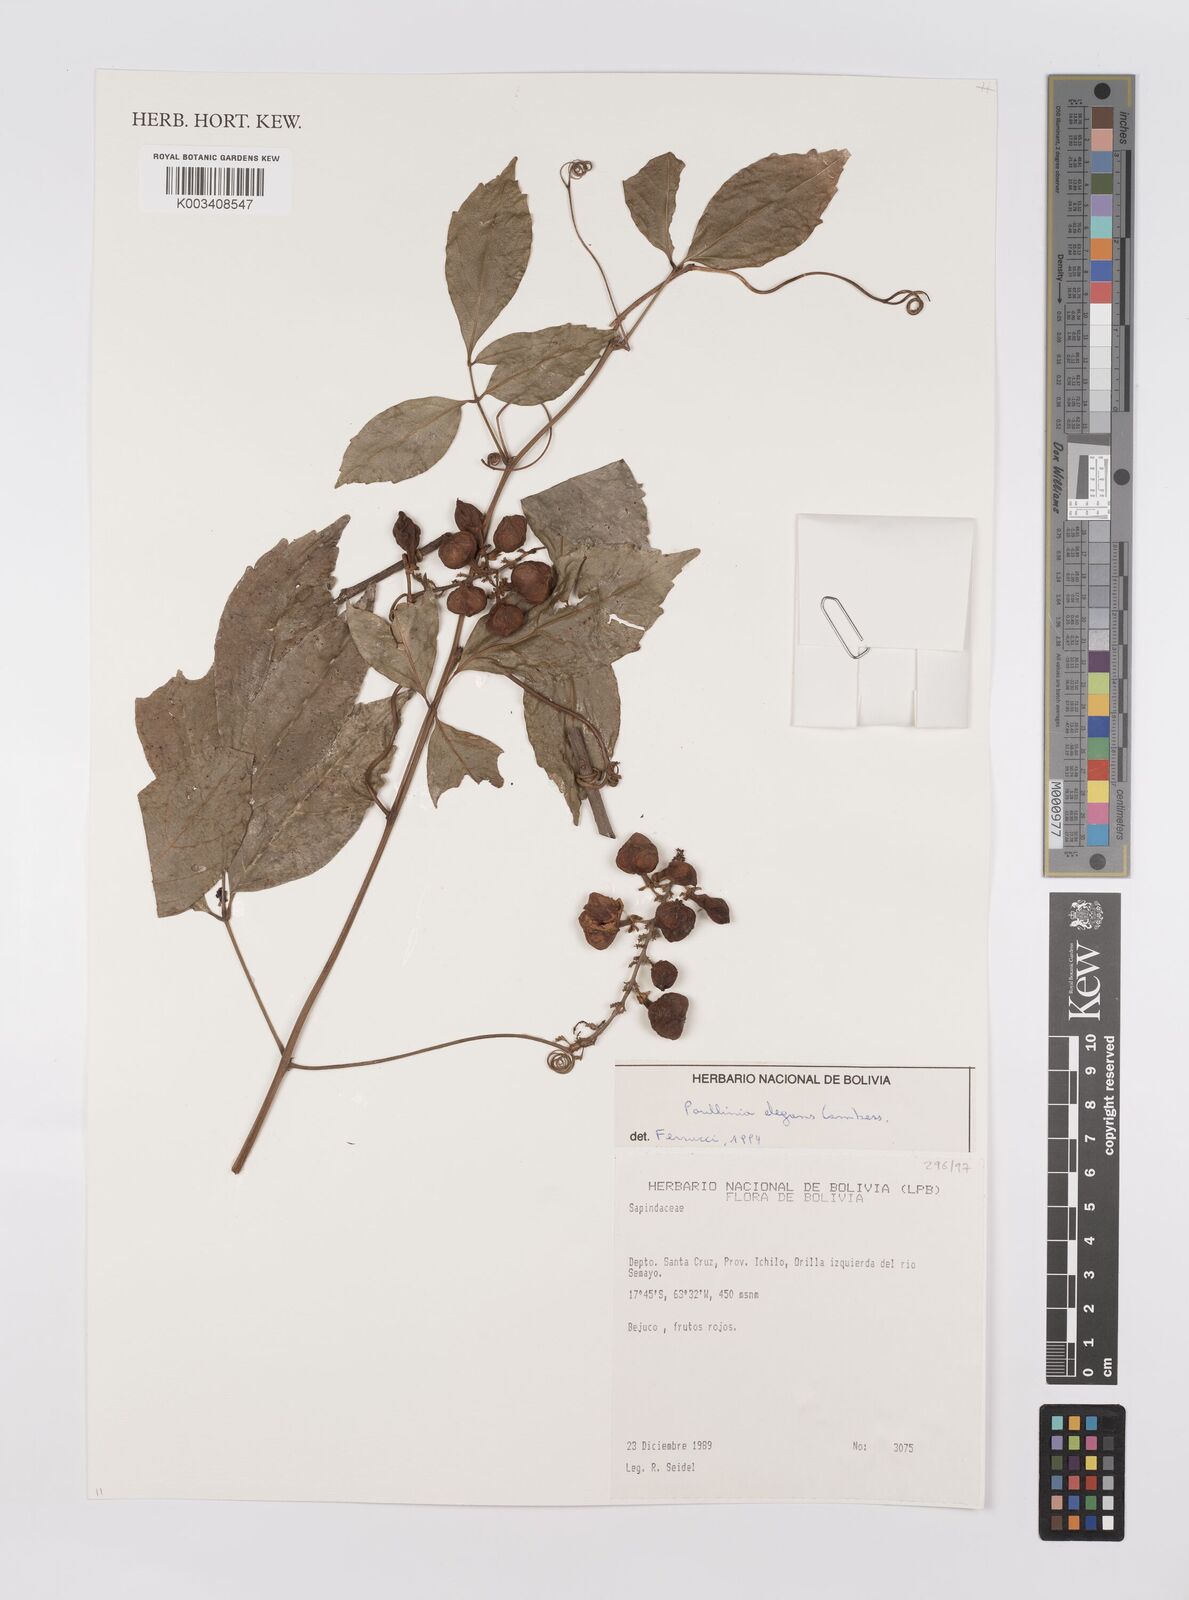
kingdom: Plantae
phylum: Tracheophyta
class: Magnoliopsida
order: Sapindales
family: Sapindaceae
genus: Paullinia
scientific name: Paullinia elegans
